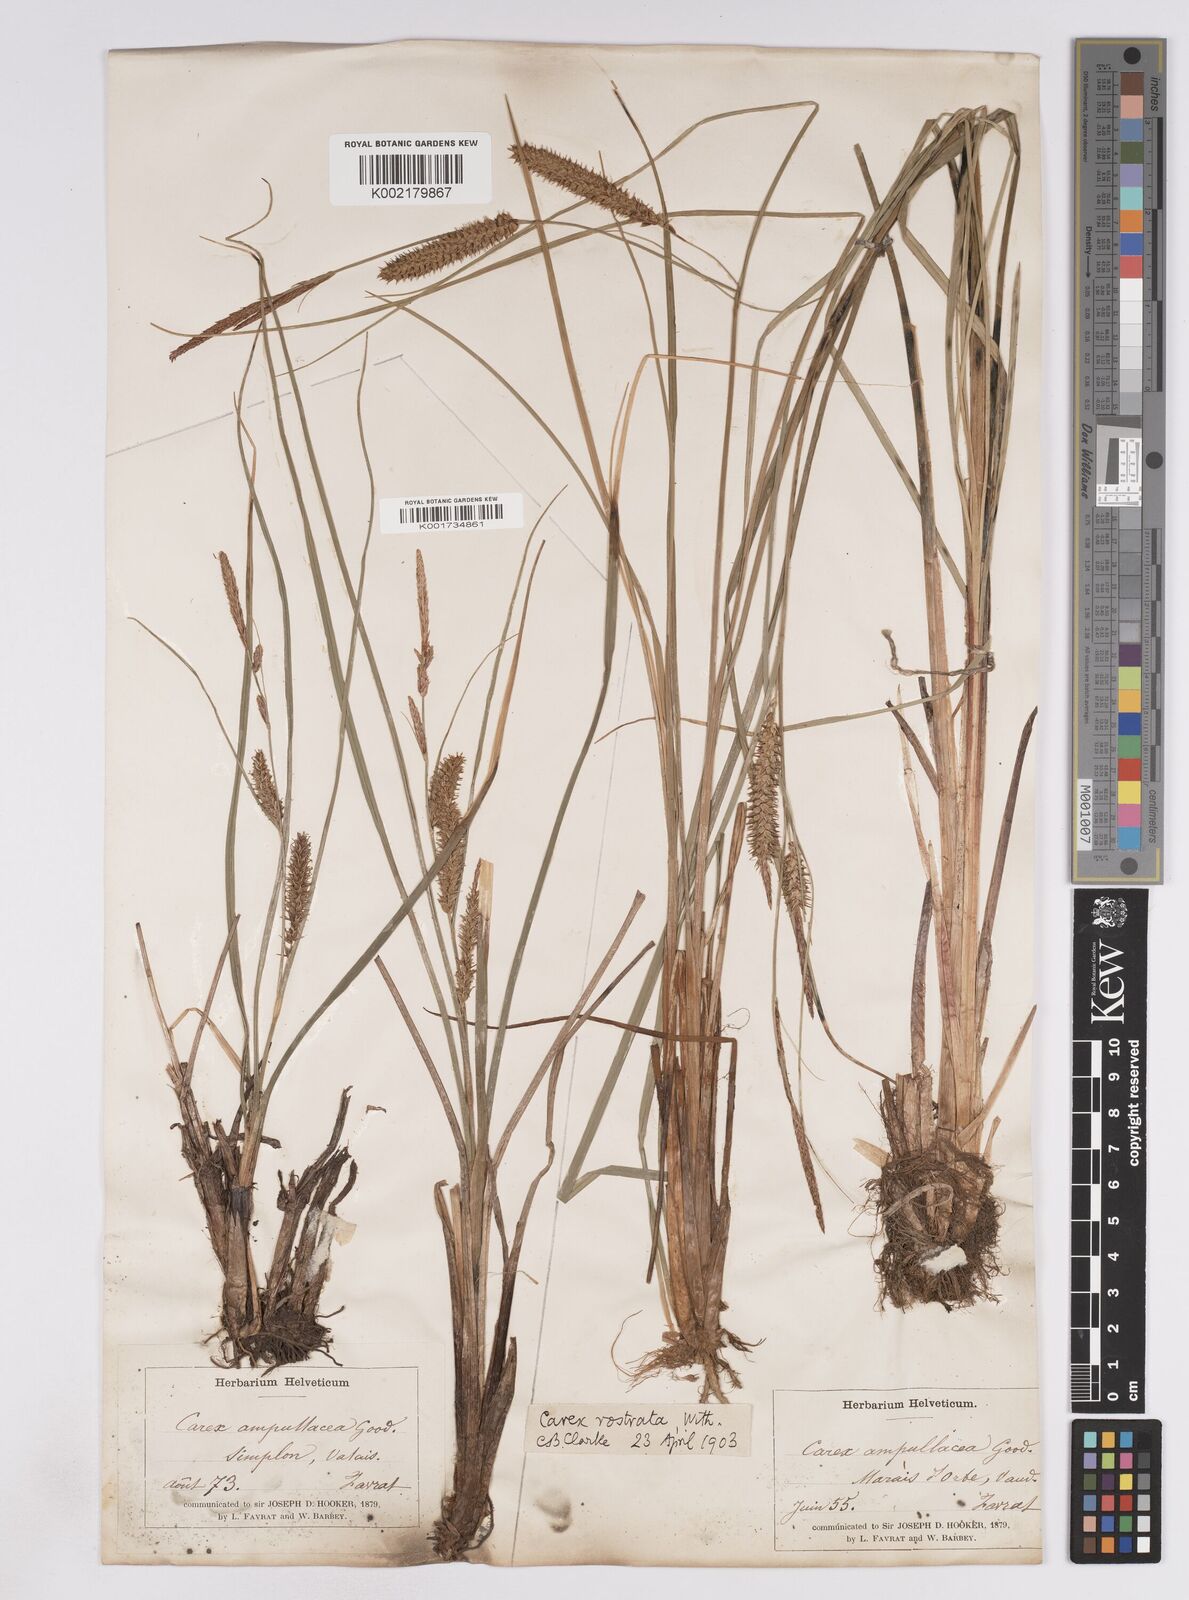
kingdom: Plantae
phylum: Tracheophyta
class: Liliopsida
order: Poales
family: Cyperaceae
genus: Carex
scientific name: Carex rostrata
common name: Bottle sedge
